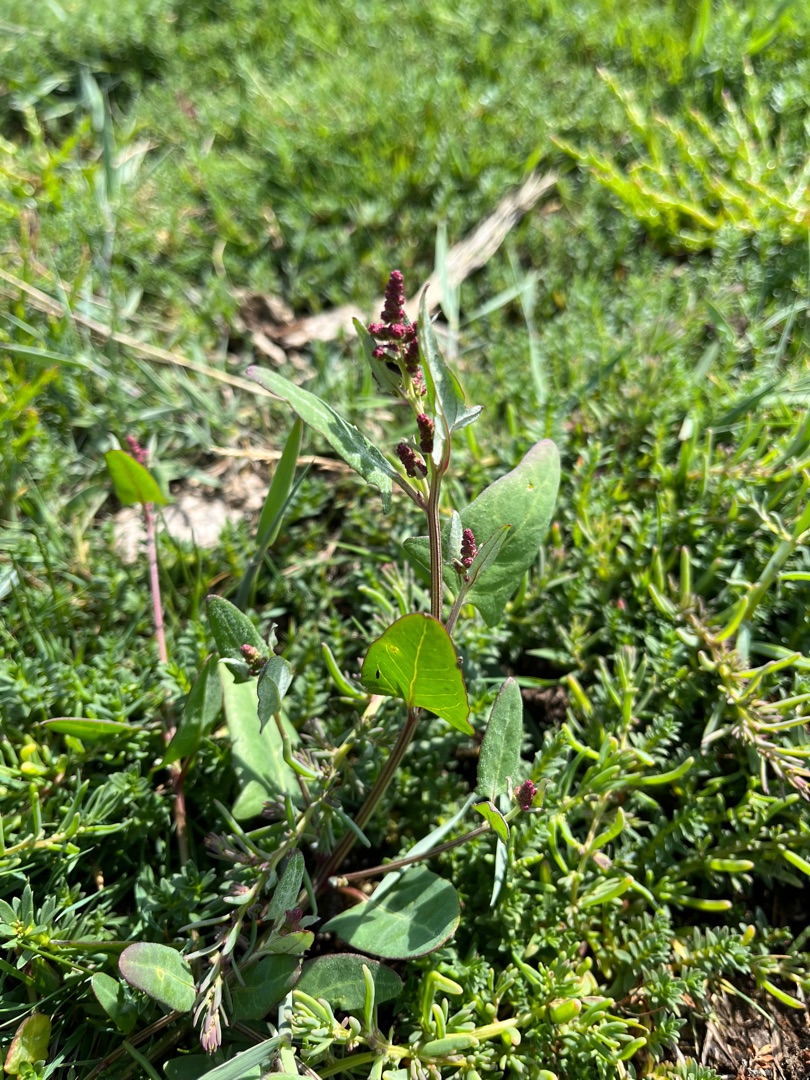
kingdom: Plantae
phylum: Tracheophyta
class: Magnoliopsida
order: Caryophyllales
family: Amaranthaceae
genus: Atriplex
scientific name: Atriplex prostrata
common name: Spyd-mælde
